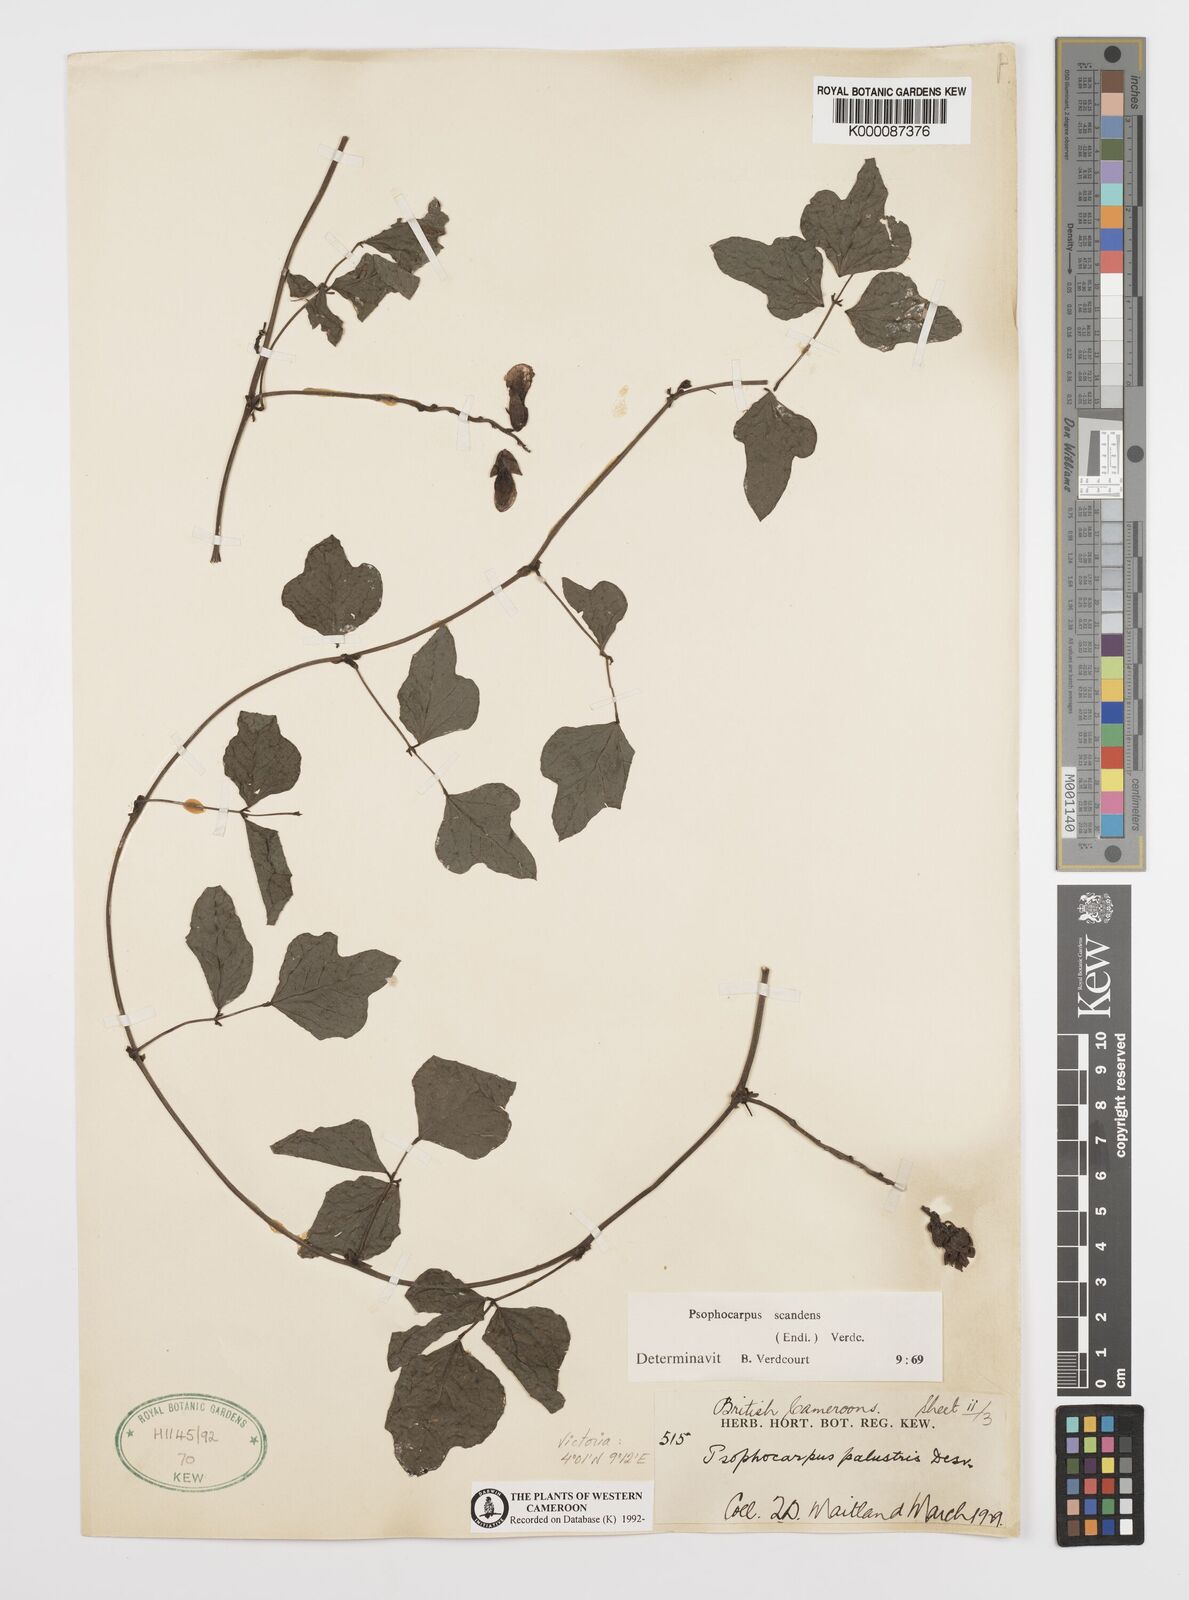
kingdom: Plantae
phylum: Tracheophyta
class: Magnoliopsida
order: Fabales
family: Fabaceae
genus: Psophocarpus
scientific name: Psophocarpus scandens
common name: Tropical african winged-bean
